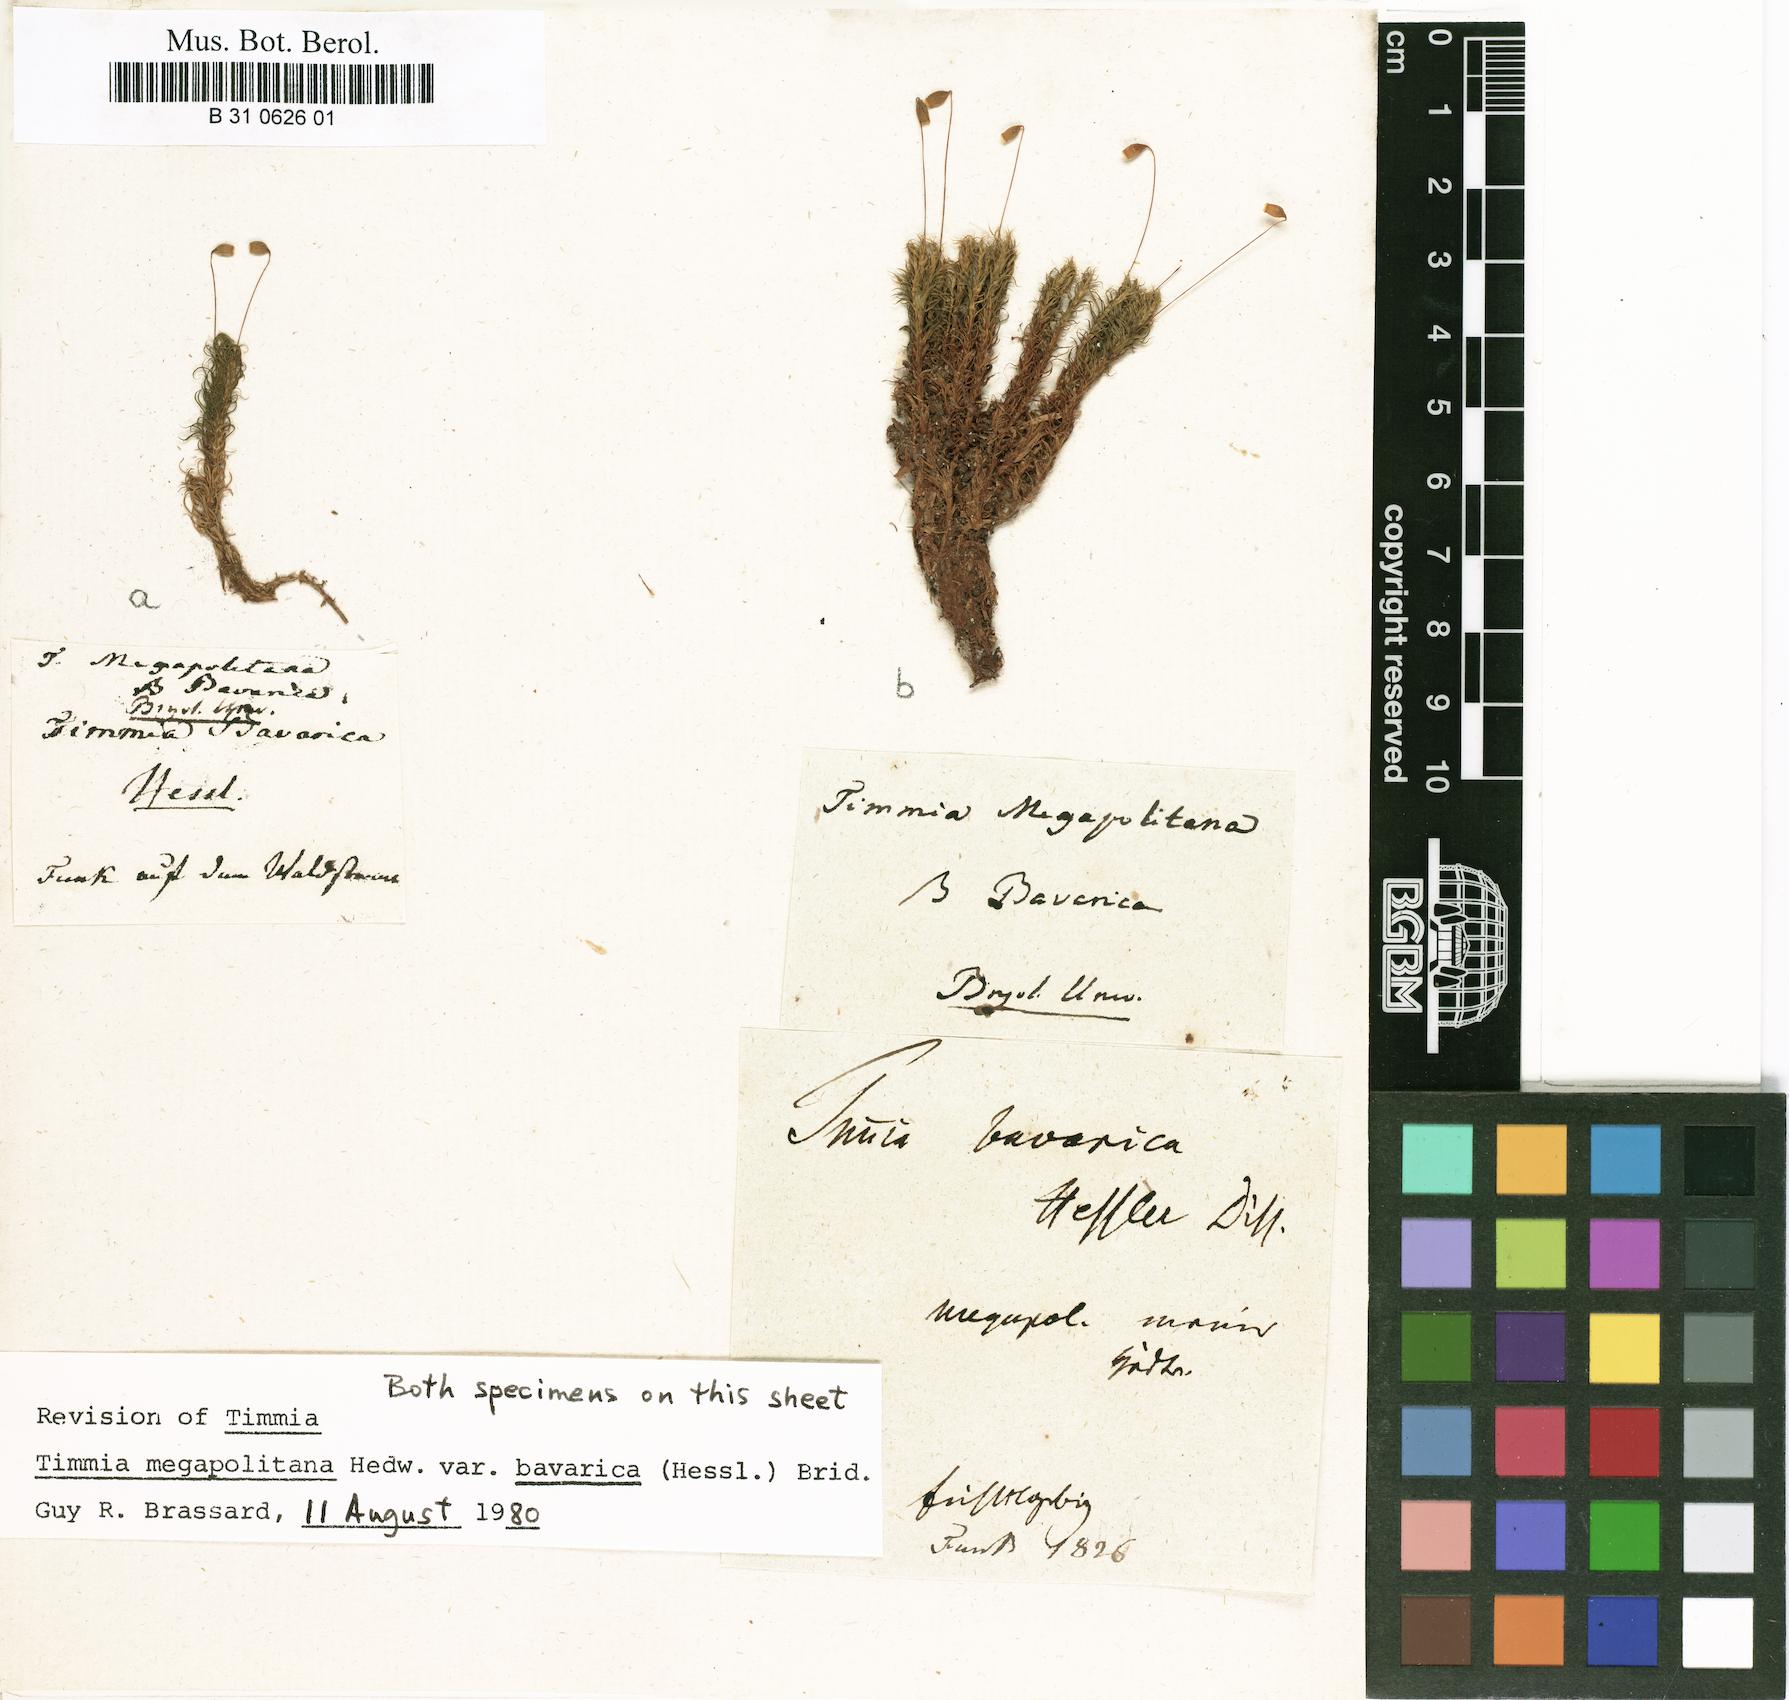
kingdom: Plantae
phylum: Bryophyta
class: Bryopsida
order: Timmiales
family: Timmiaceae
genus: Timmia
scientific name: Timmia megapolitana
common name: Warrior moss
